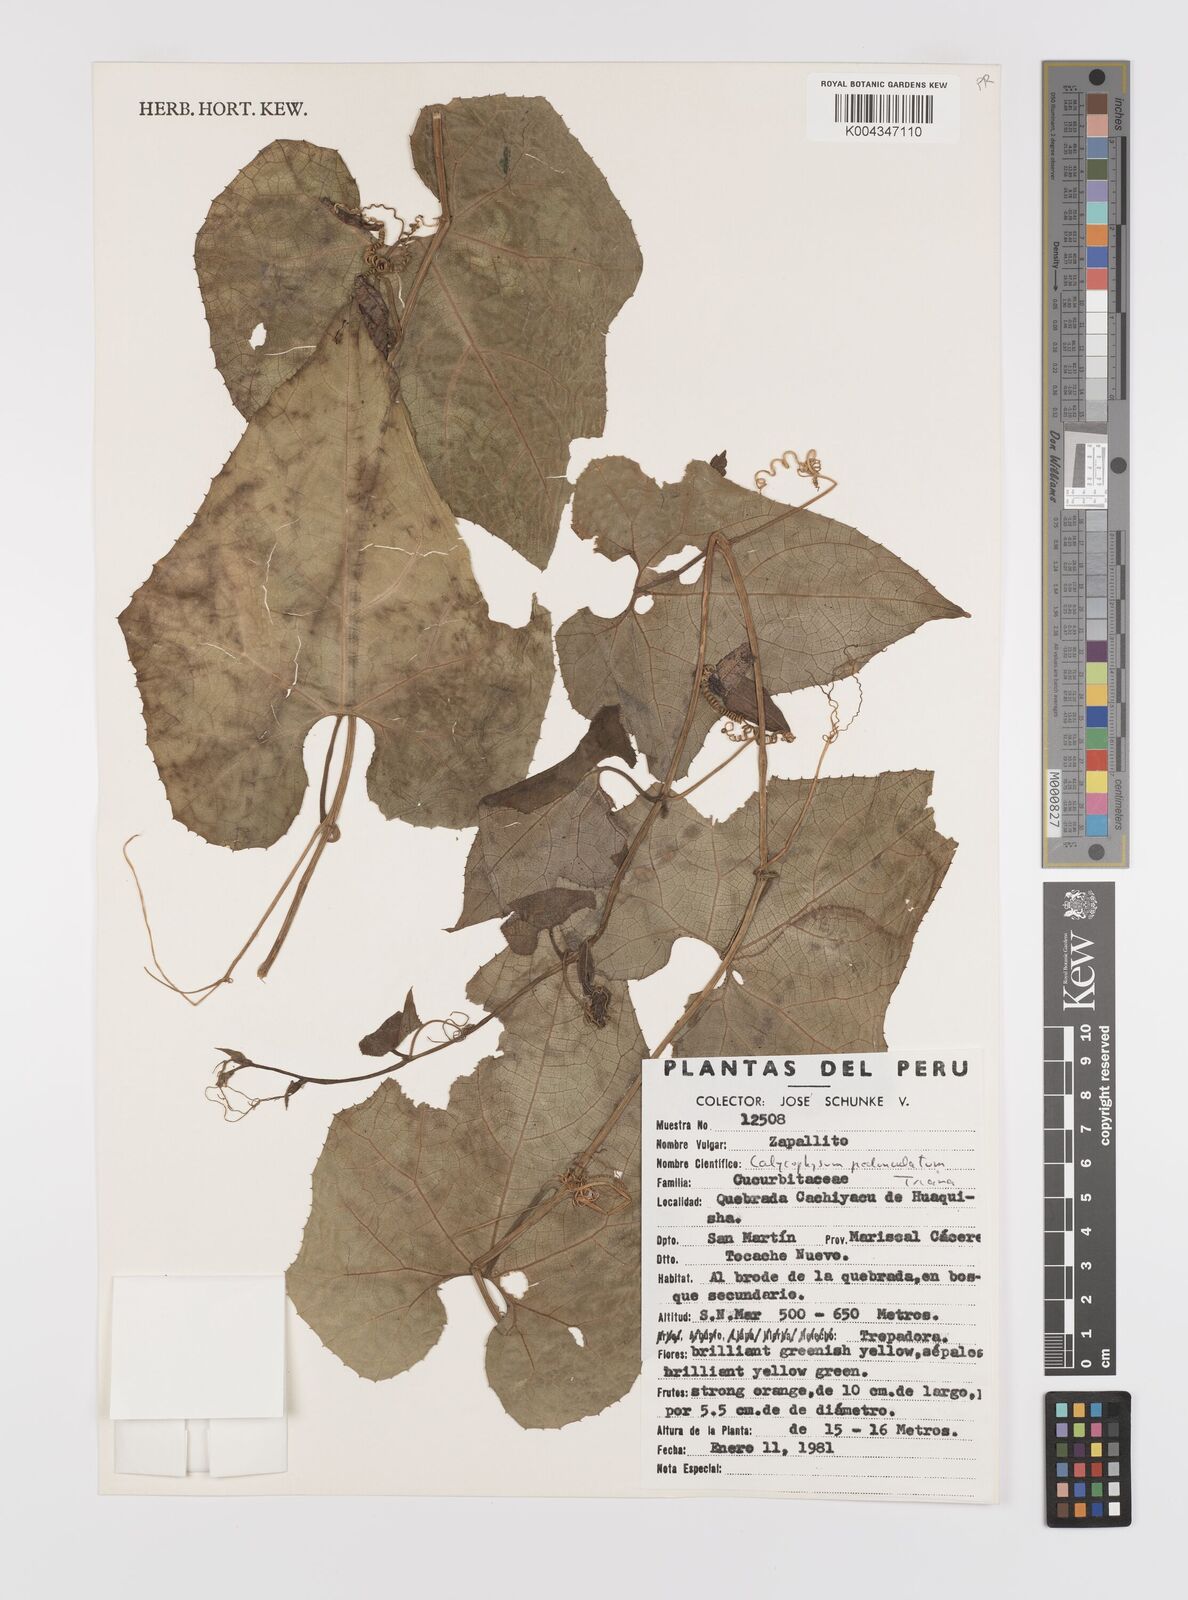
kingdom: Plantae
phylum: Tracheophyta
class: Magnoliopsida
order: Cucurbitales
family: Cucurbitaceae
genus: Calycophysum
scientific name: Calycophysum pedunculatum
